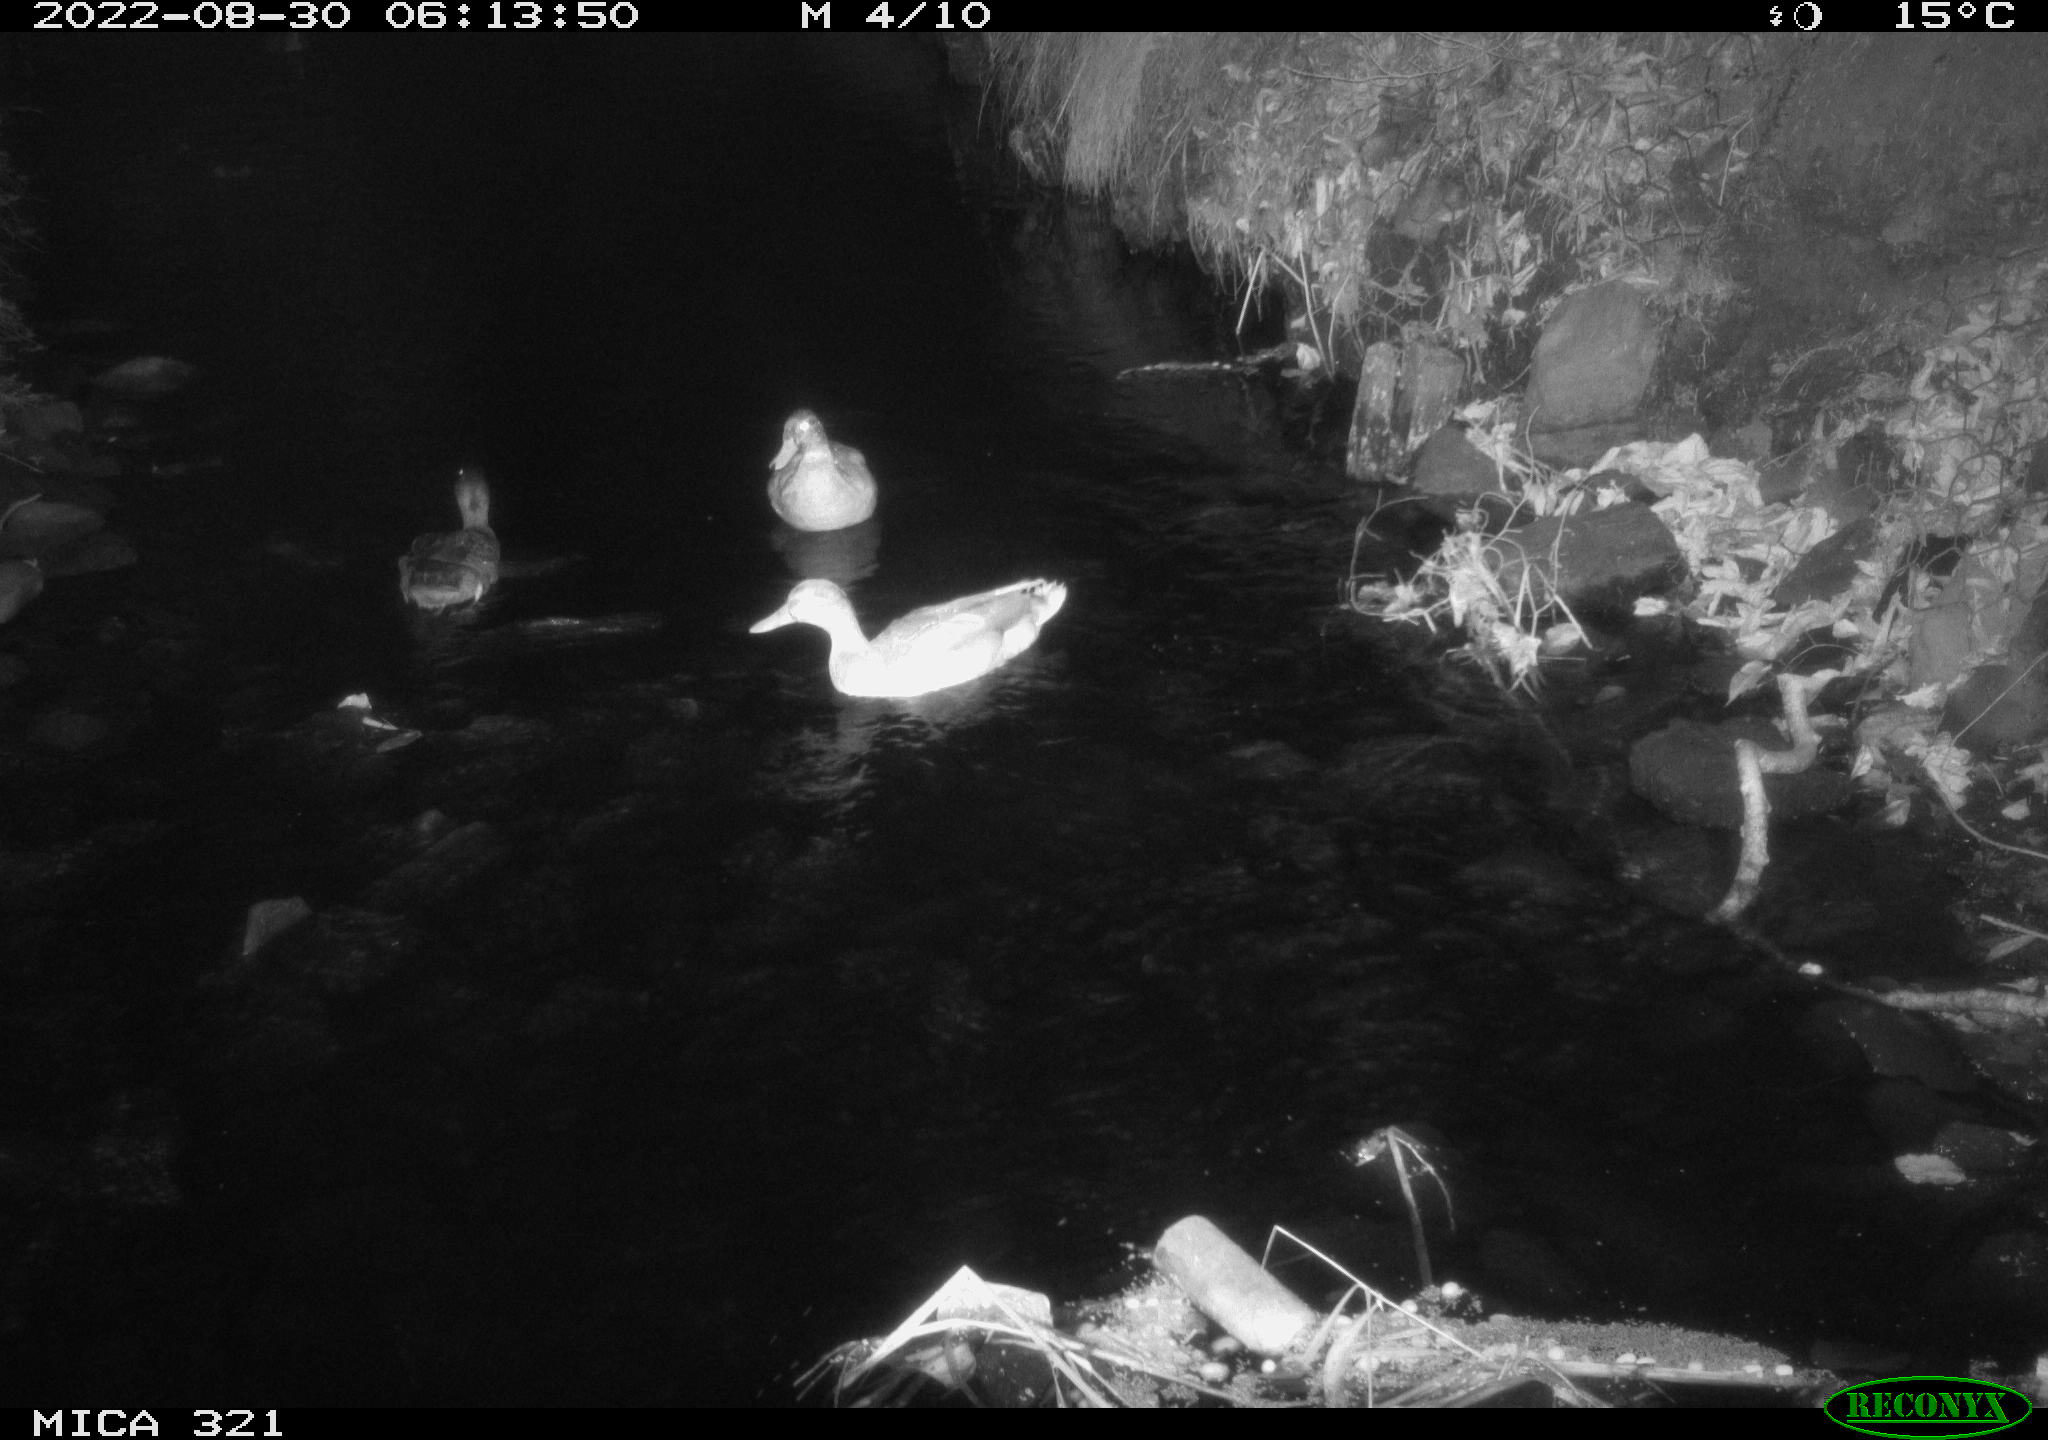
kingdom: Animalia
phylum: Chordata
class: Aves
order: Anseriformes
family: Anatidae
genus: Mareca
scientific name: Mareca strepera
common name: Gadwall
